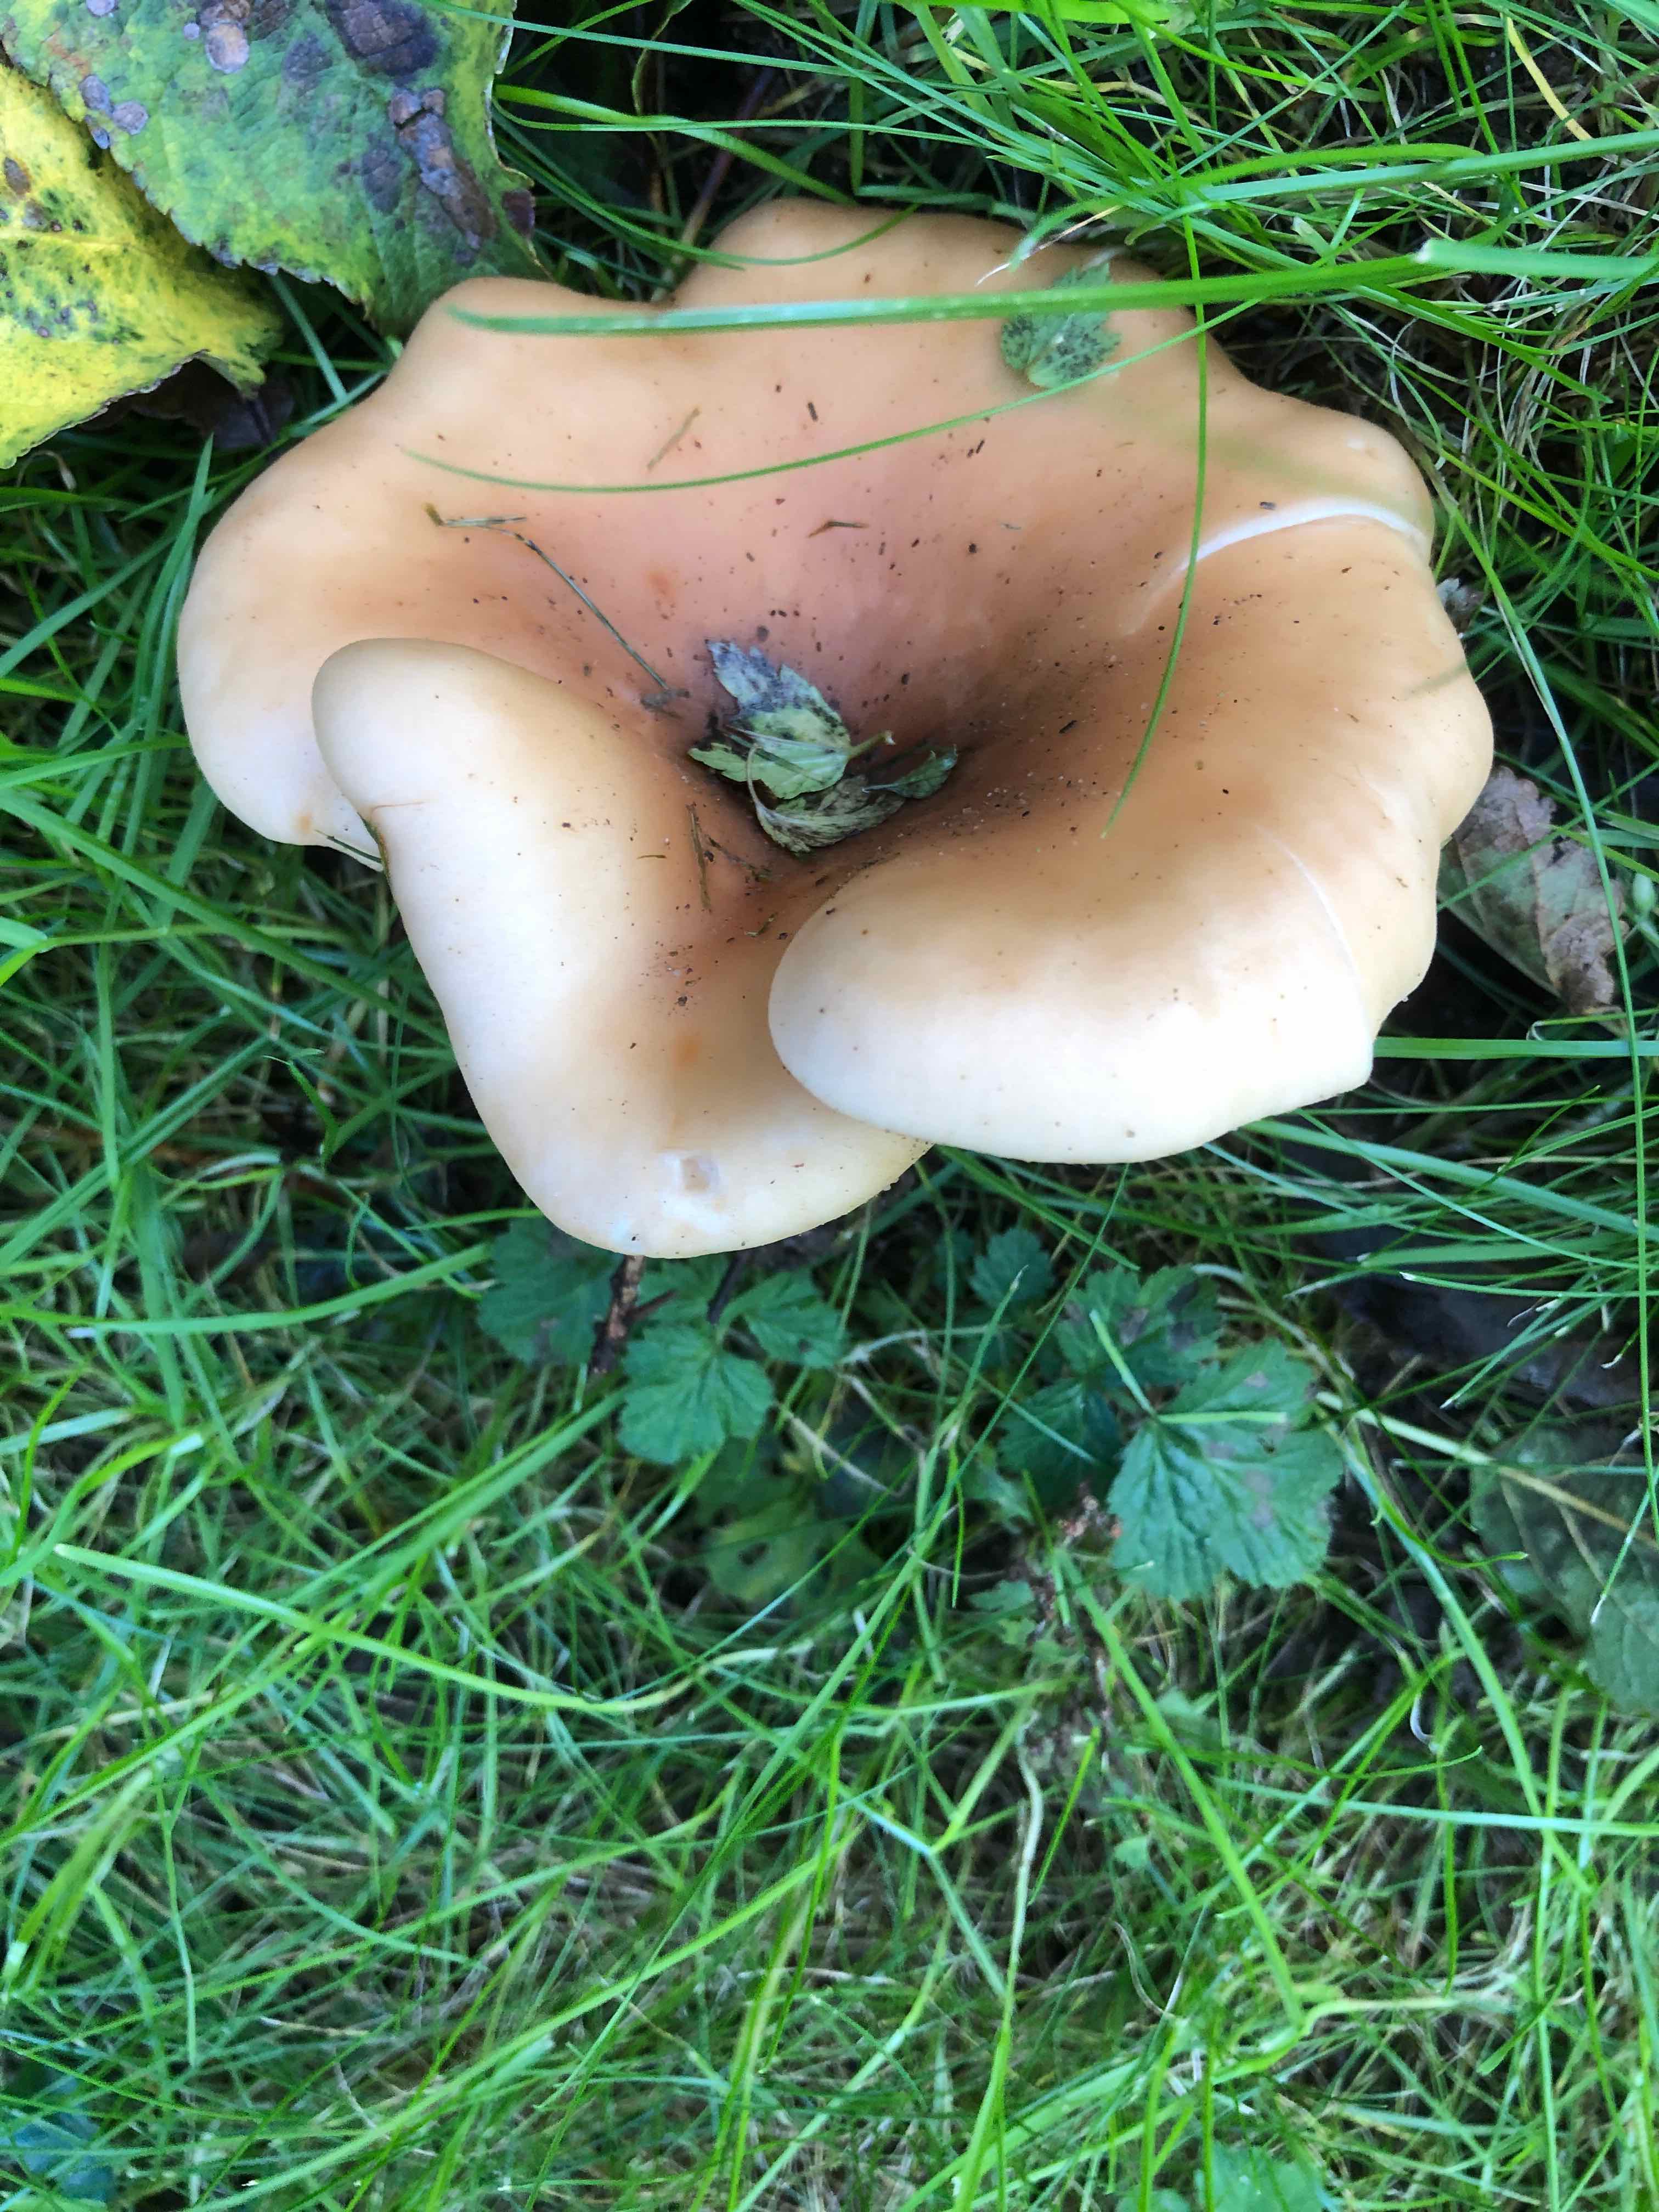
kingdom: Fungi
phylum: Basidiomycota
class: Agaricomycetes
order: Agaricales
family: Tricholomataceae
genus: Paralepista
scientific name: Paralepista flaccida
